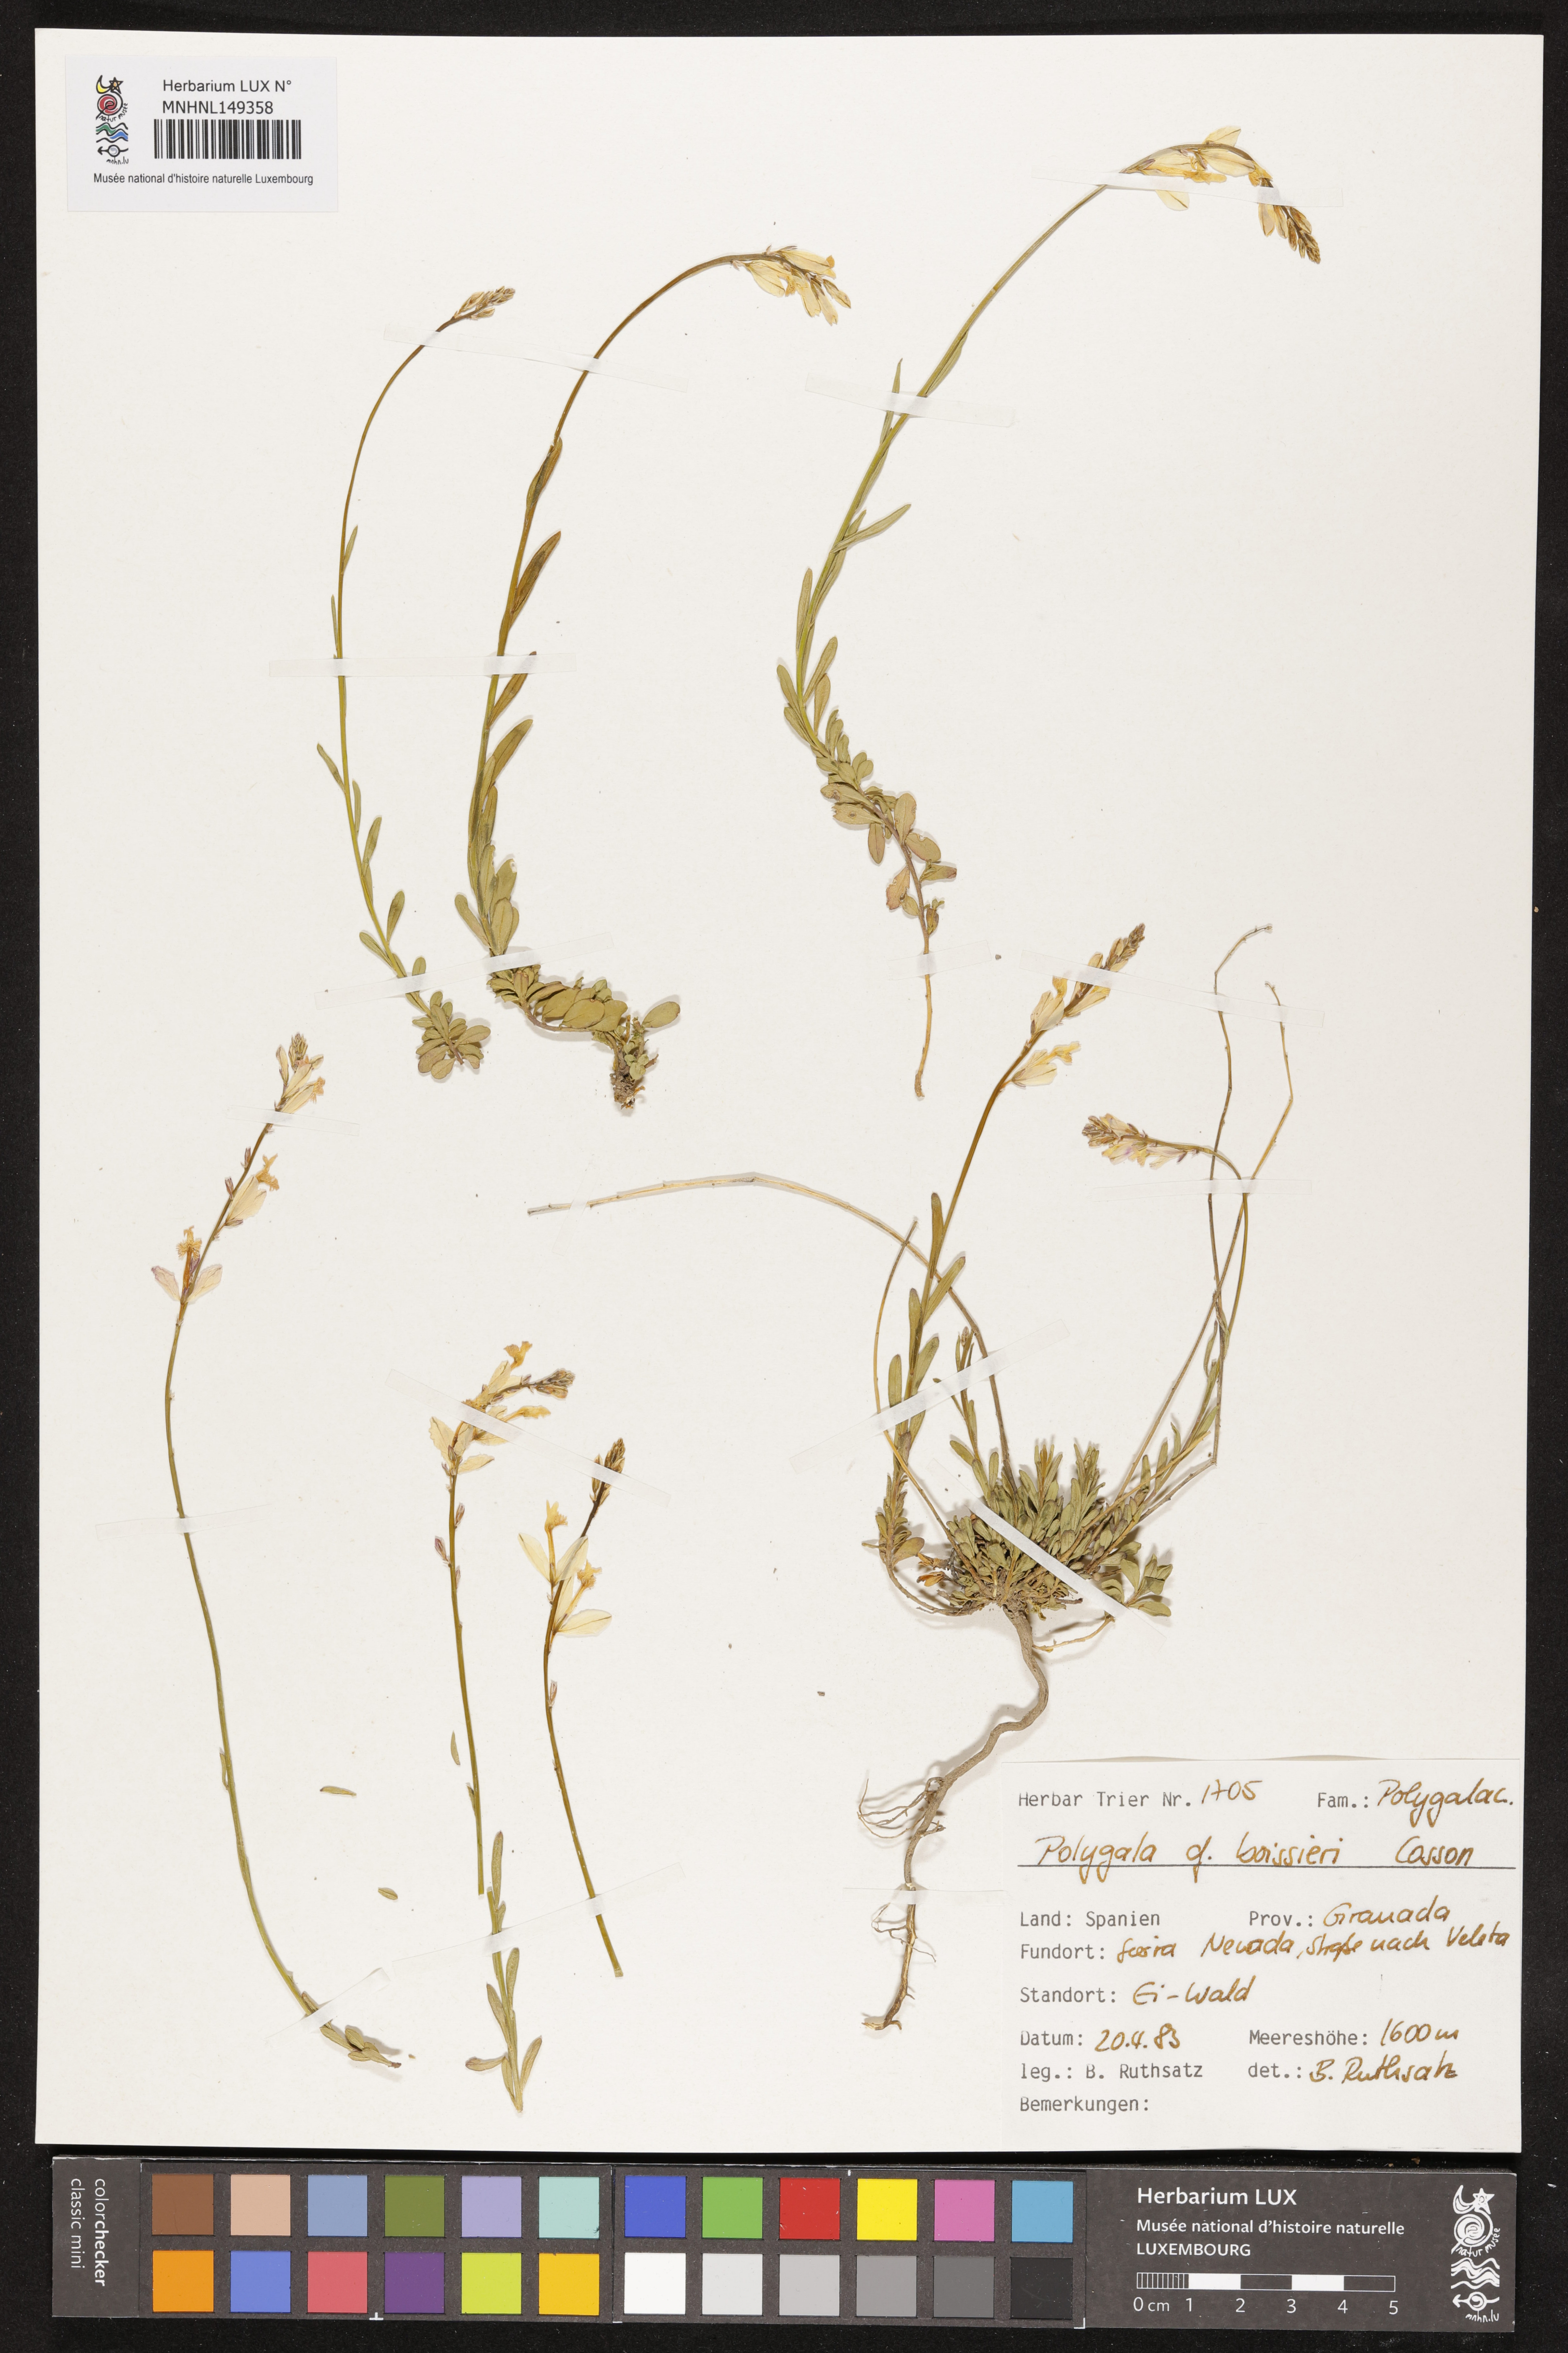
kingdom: Plantae
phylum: Tracheophyta
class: Magnoliopsida
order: Fabales
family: Polygalaceae
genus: Polygala
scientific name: Polygala boissieri
